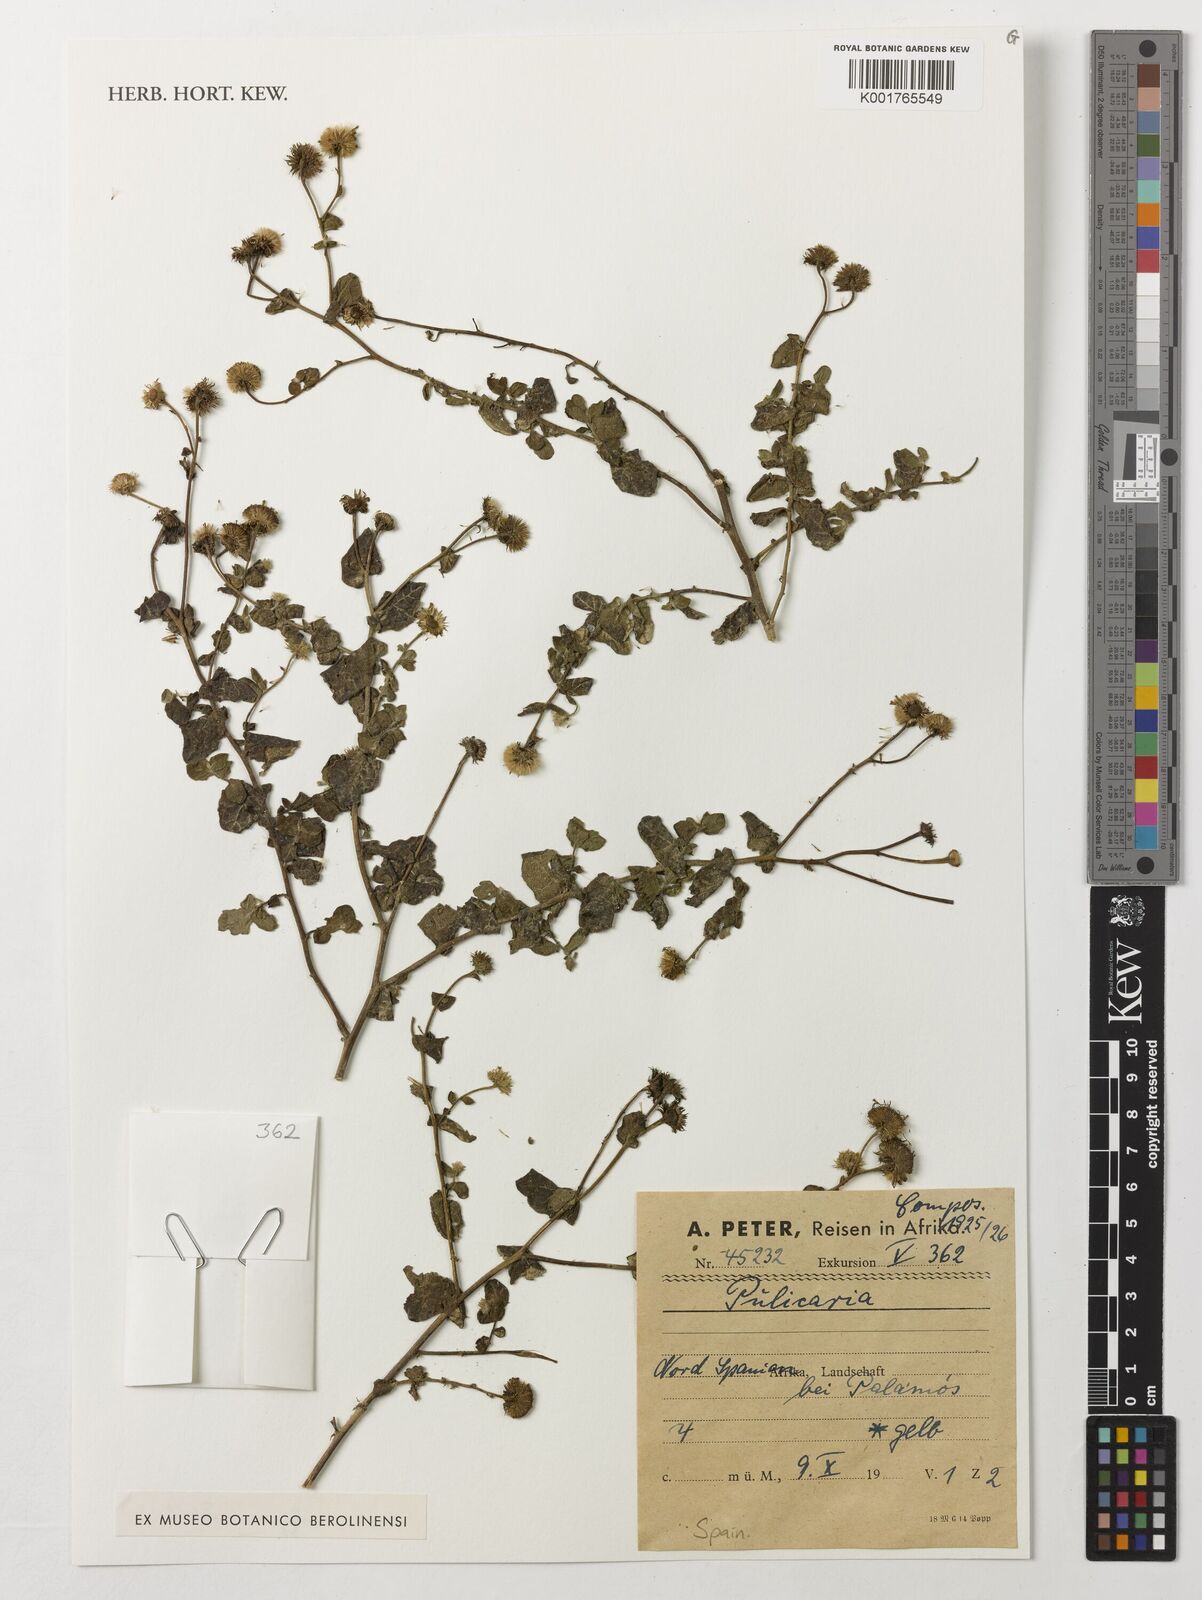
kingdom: Plantae
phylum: Tracheophyta
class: Magnoliopsida
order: Asterales
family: Asteraceae
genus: Pulicaria
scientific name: Pulicaria
